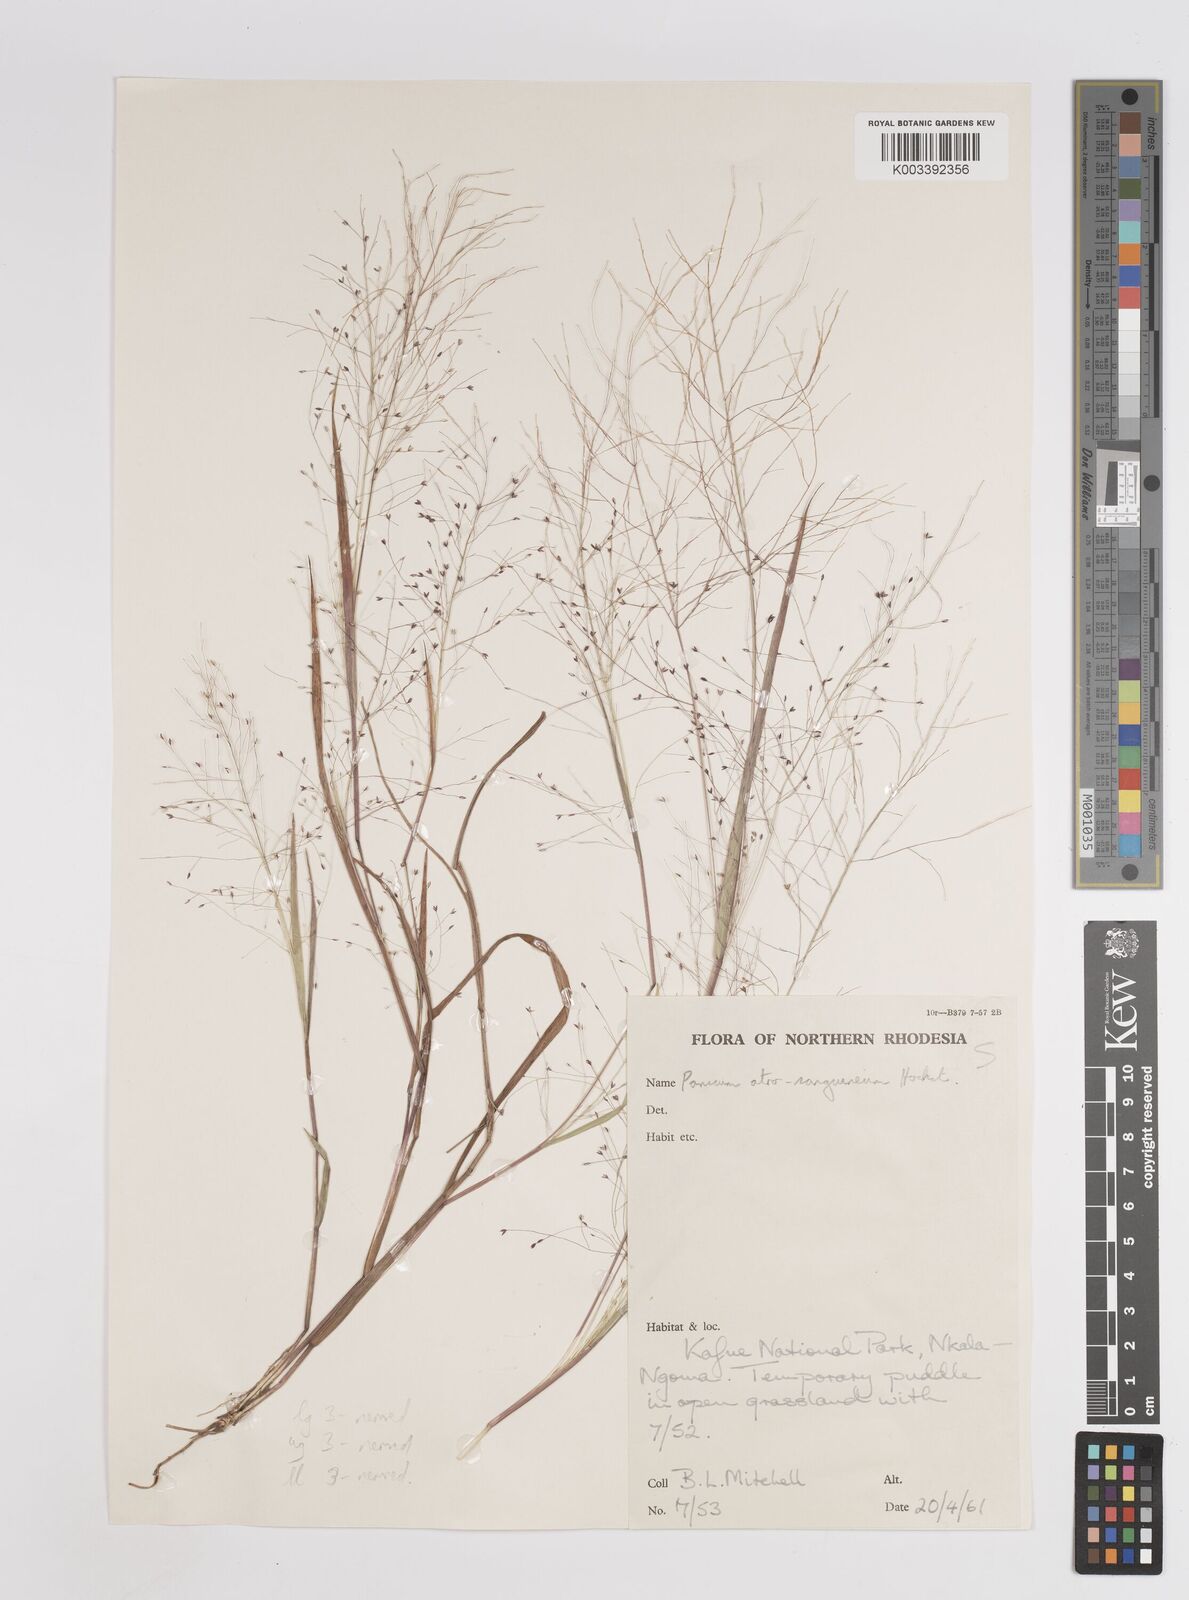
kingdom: Plantae
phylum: Tracheophyta
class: Liliopsida
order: Poales
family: Poaceae
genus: Panicum
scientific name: Panicum humile
